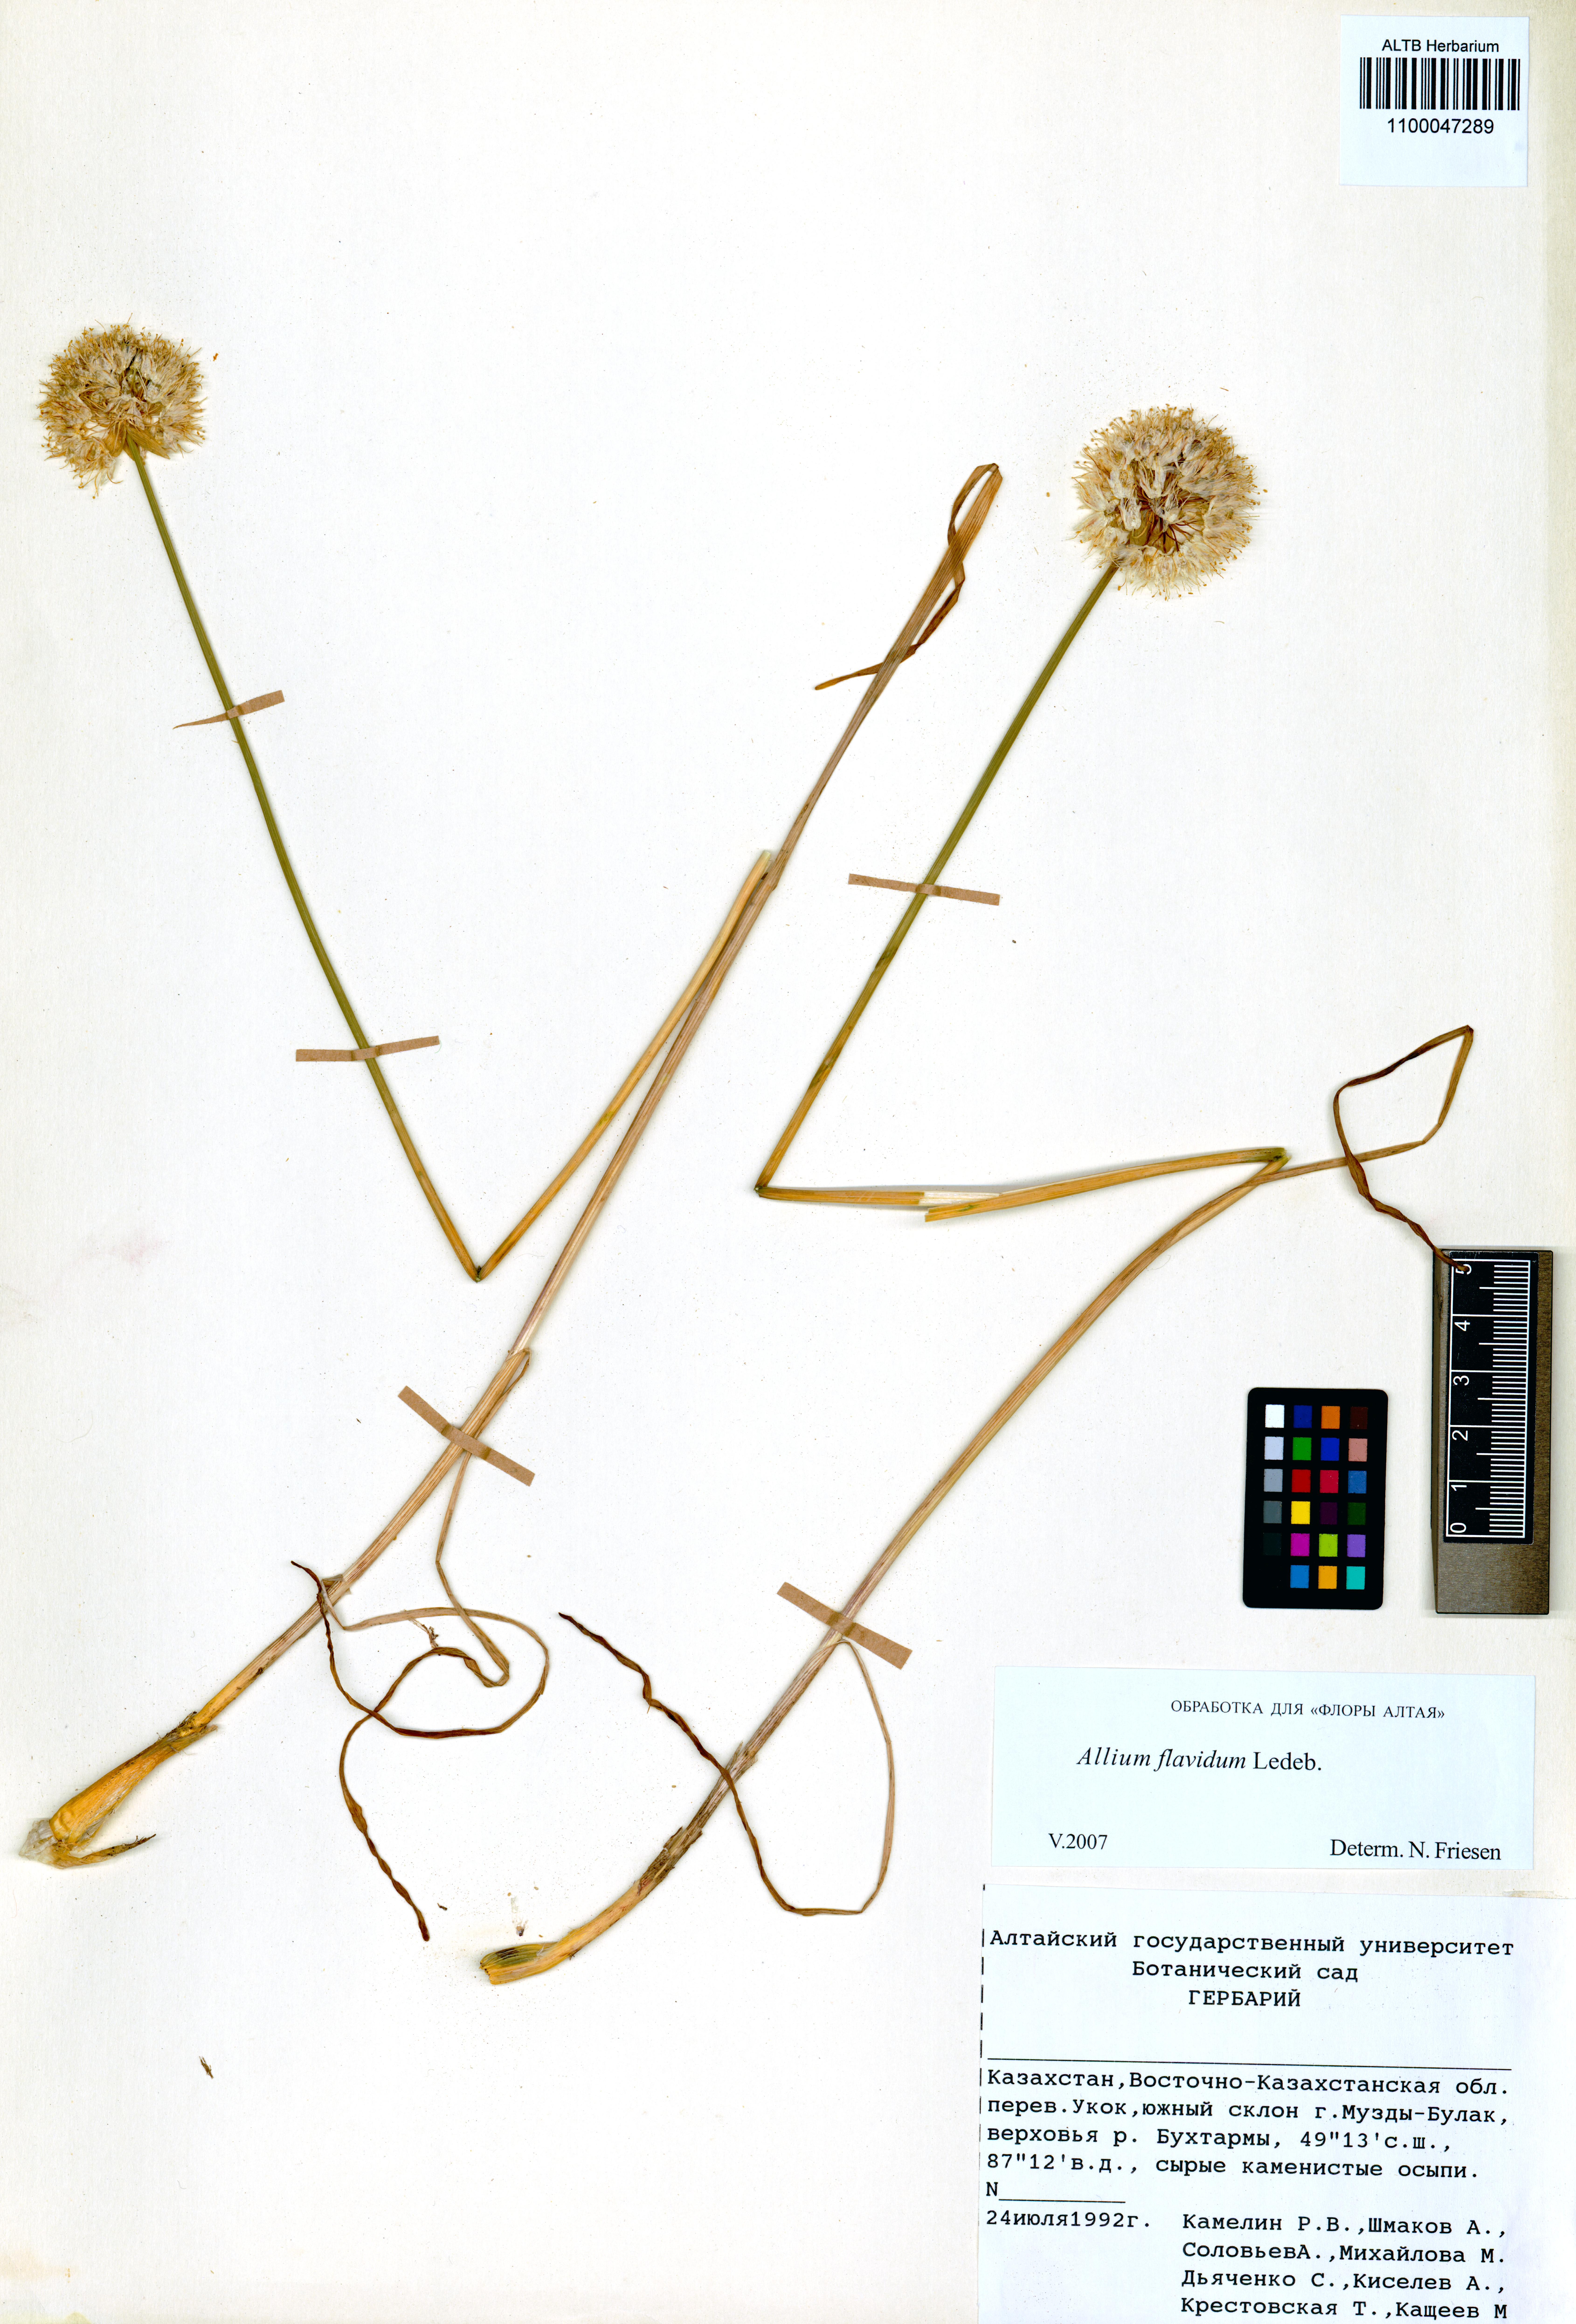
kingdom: Plantae
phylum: Tracheophyta
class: Liliopsida
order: Asparagales
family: Amaryllidaceae
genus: Allium
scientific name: Allium flavidum
